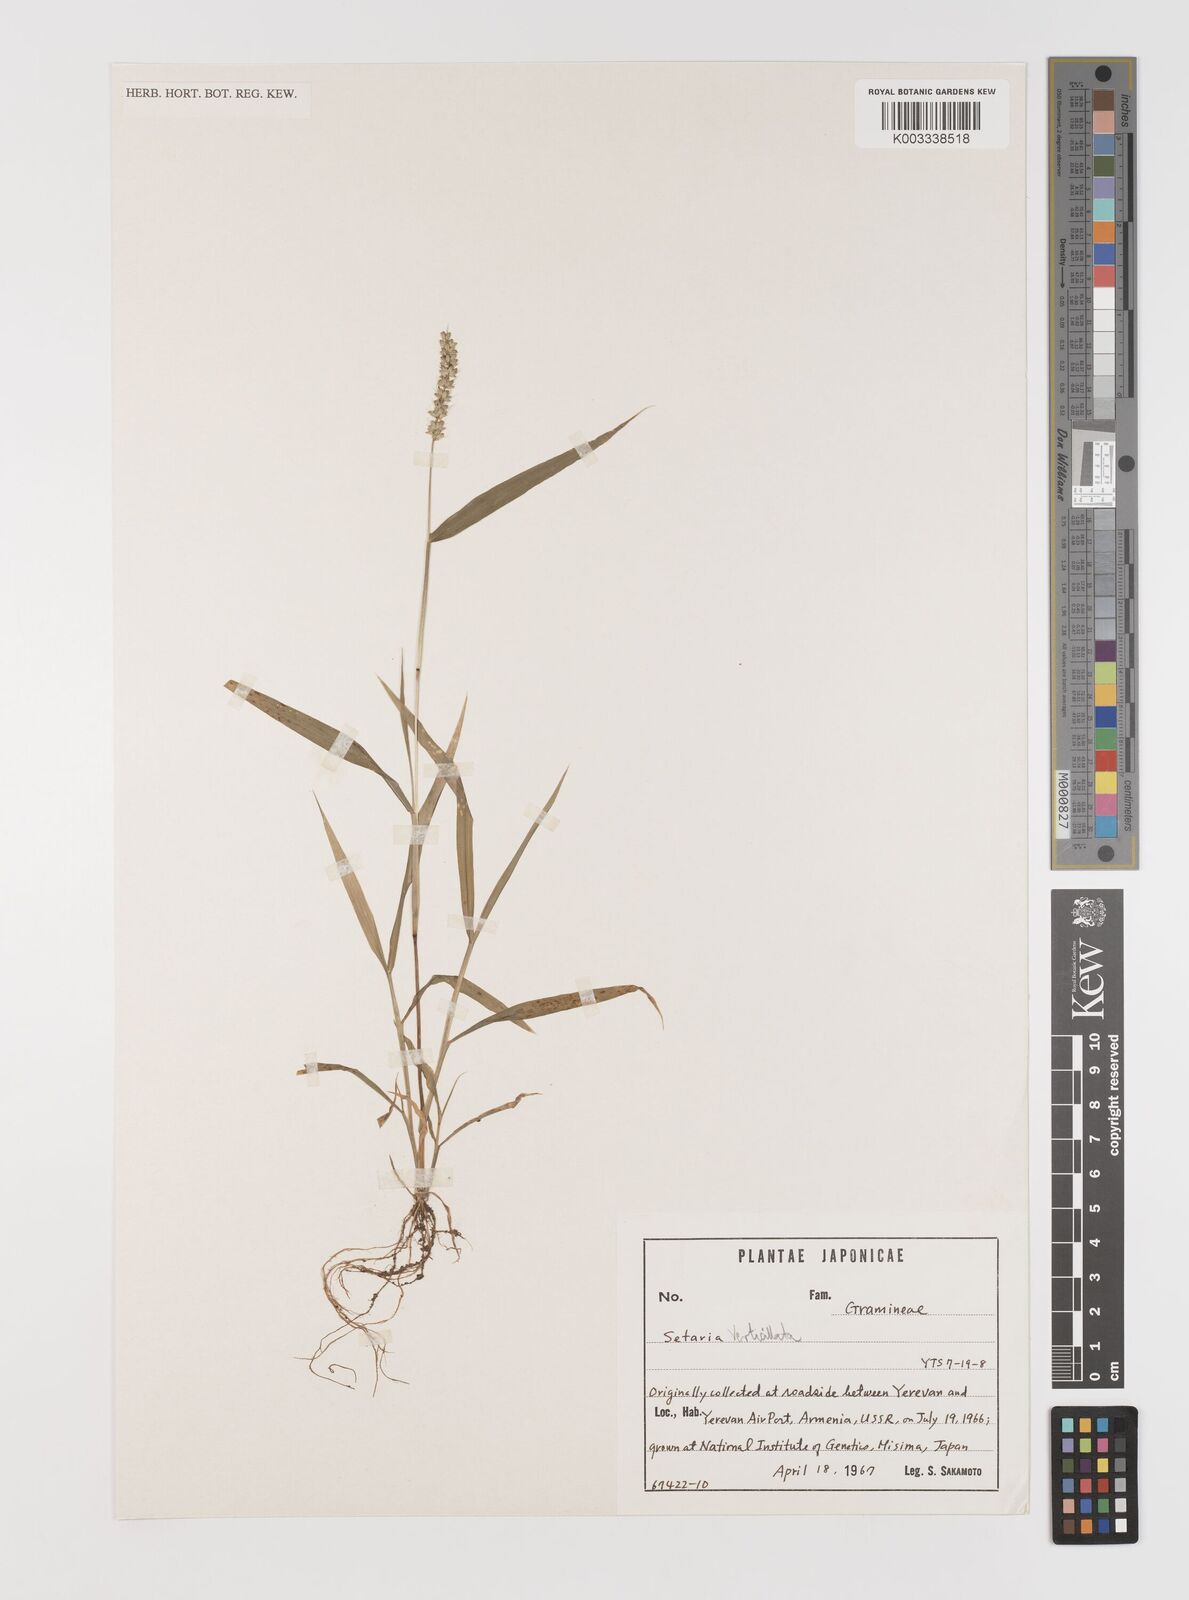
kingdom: Plantae
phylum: Tracheophyta
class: Liliopsida
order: Poales
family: Poaceae
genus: Setaria
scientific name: Setaria verticillata
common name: Hooked bristlegrass
